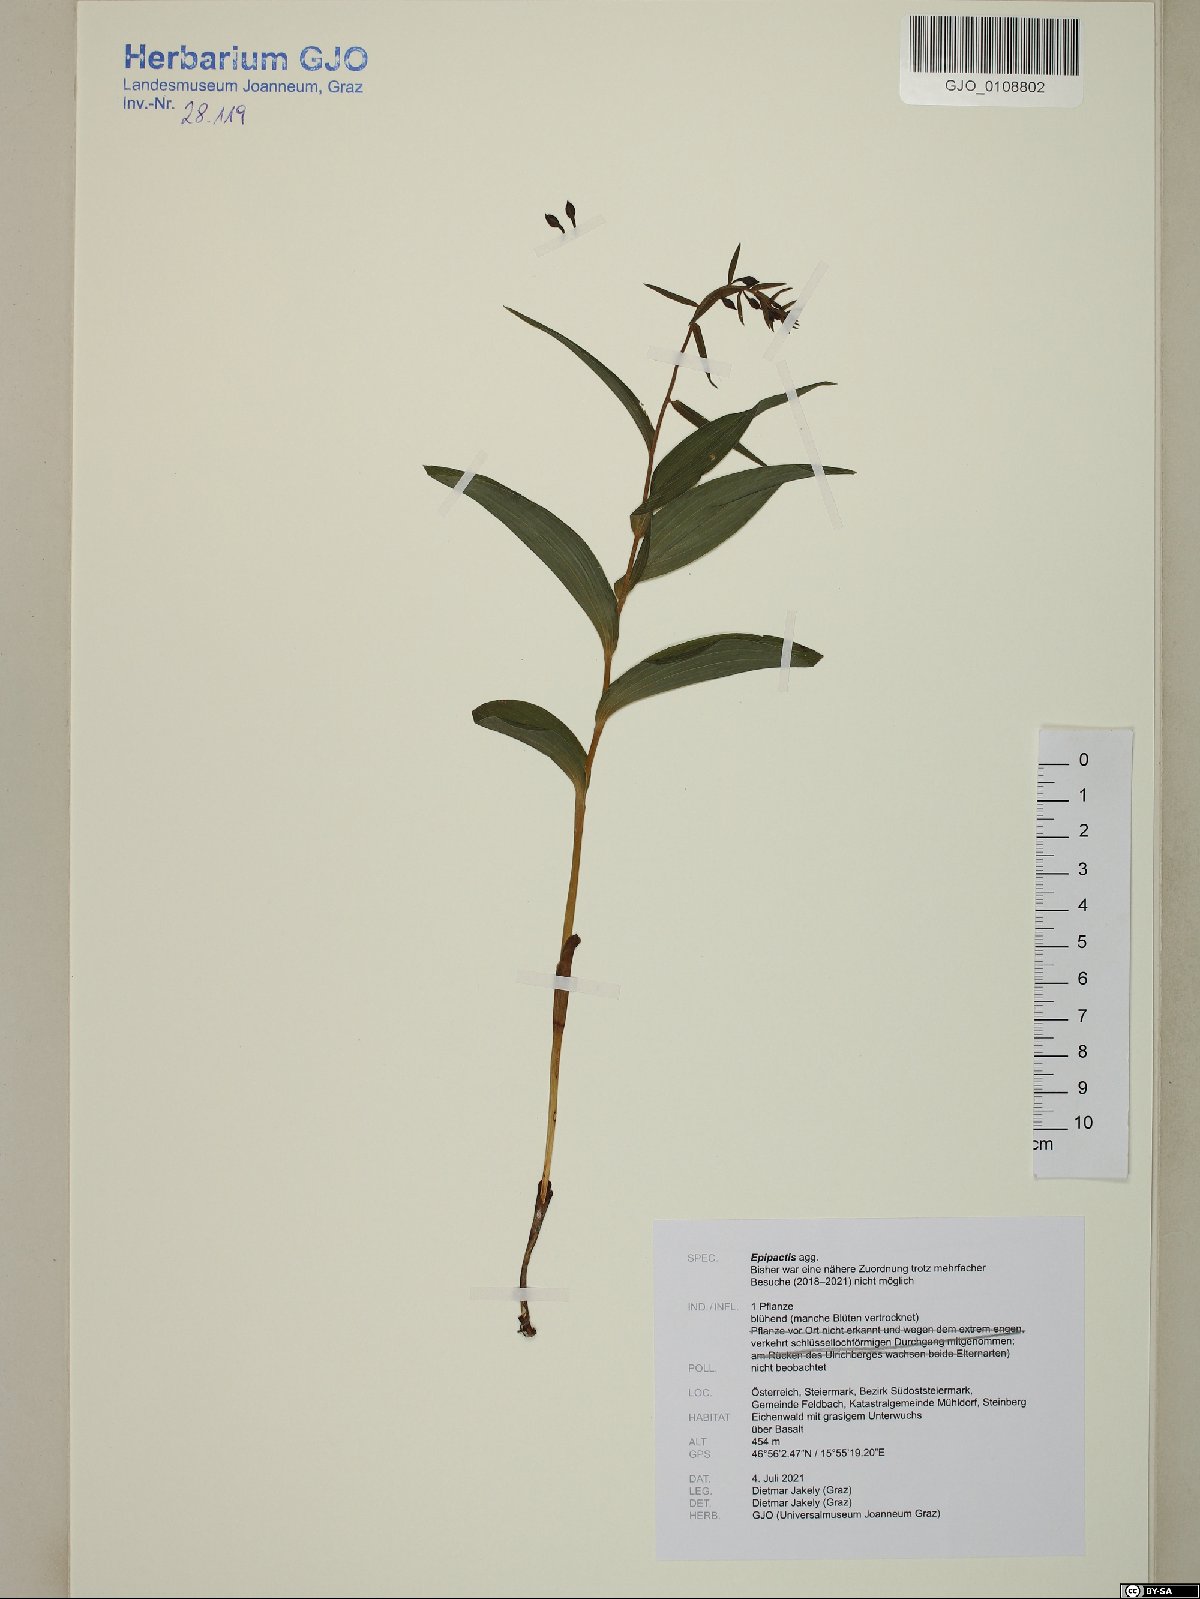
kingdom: Plantae
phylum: Tracheophyta
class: Liliopsida
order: Asparagales
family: Orchidaceae
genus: Epipactis
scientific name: Epipactis
